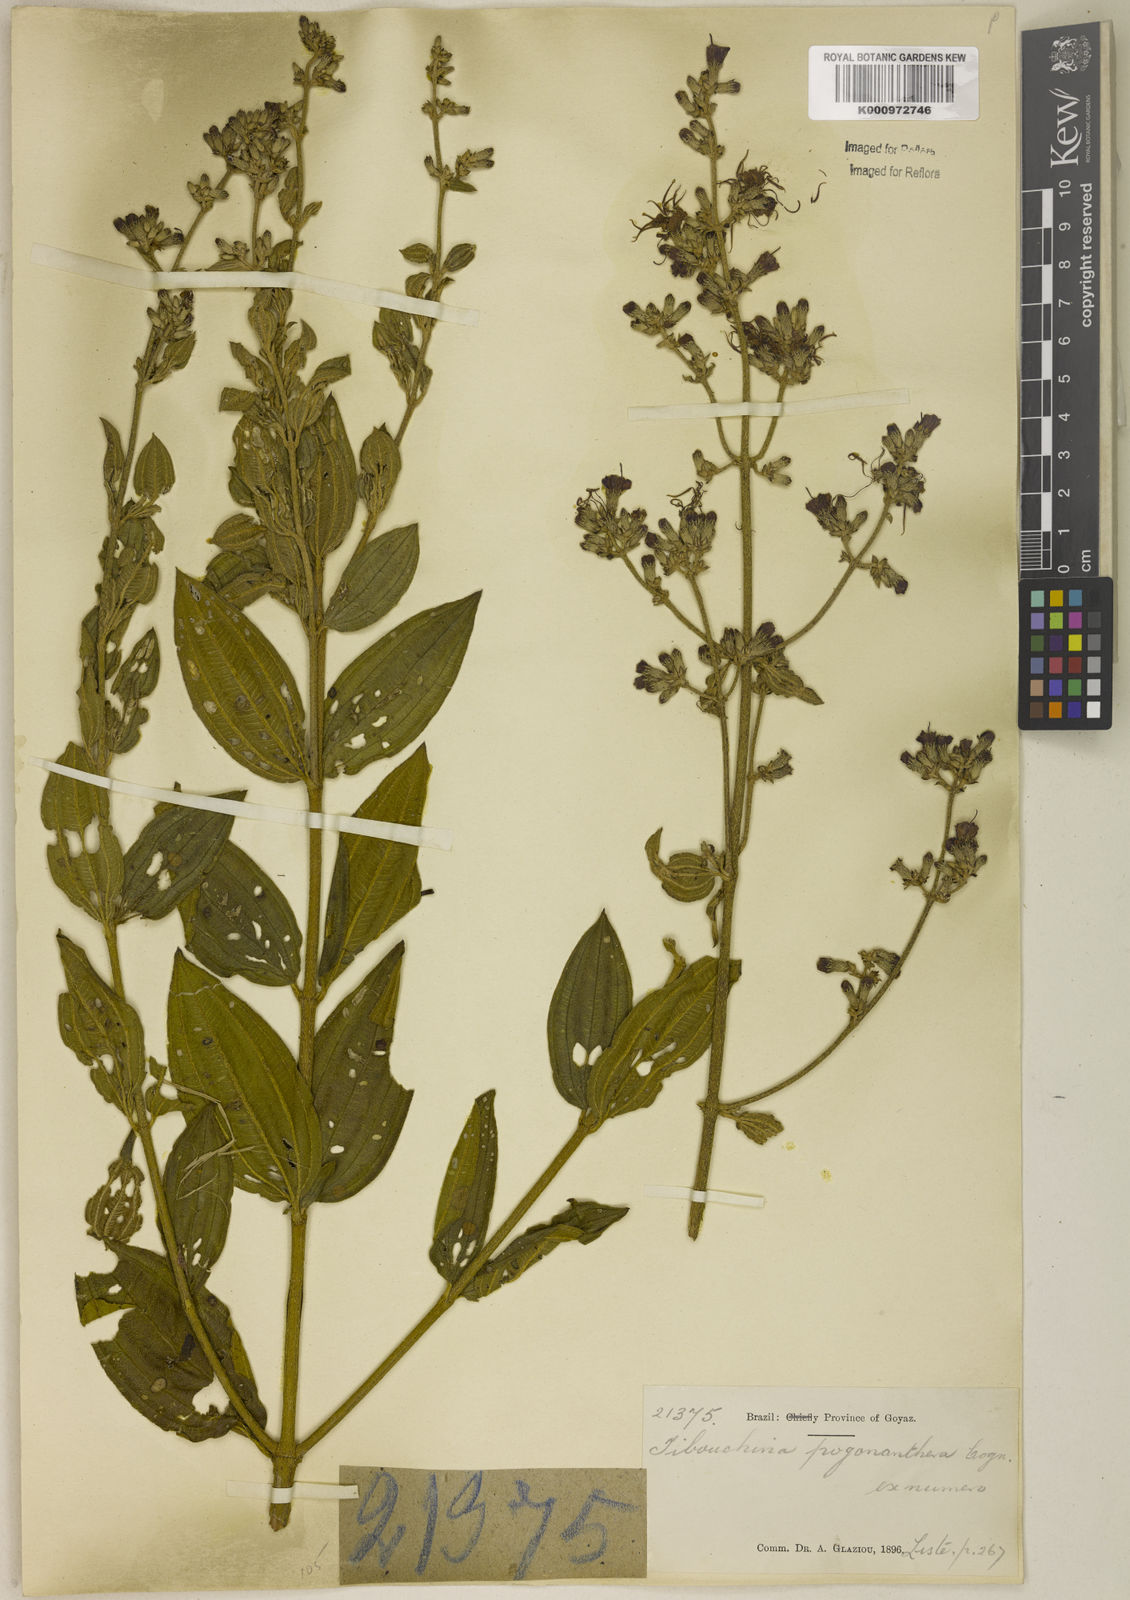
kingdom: Plantae
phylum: Tracheophyta
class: Magnoliopsida
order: Myrtales
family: Melastomataceae
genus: Pleroma
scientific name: Pleroma pogonantherum
